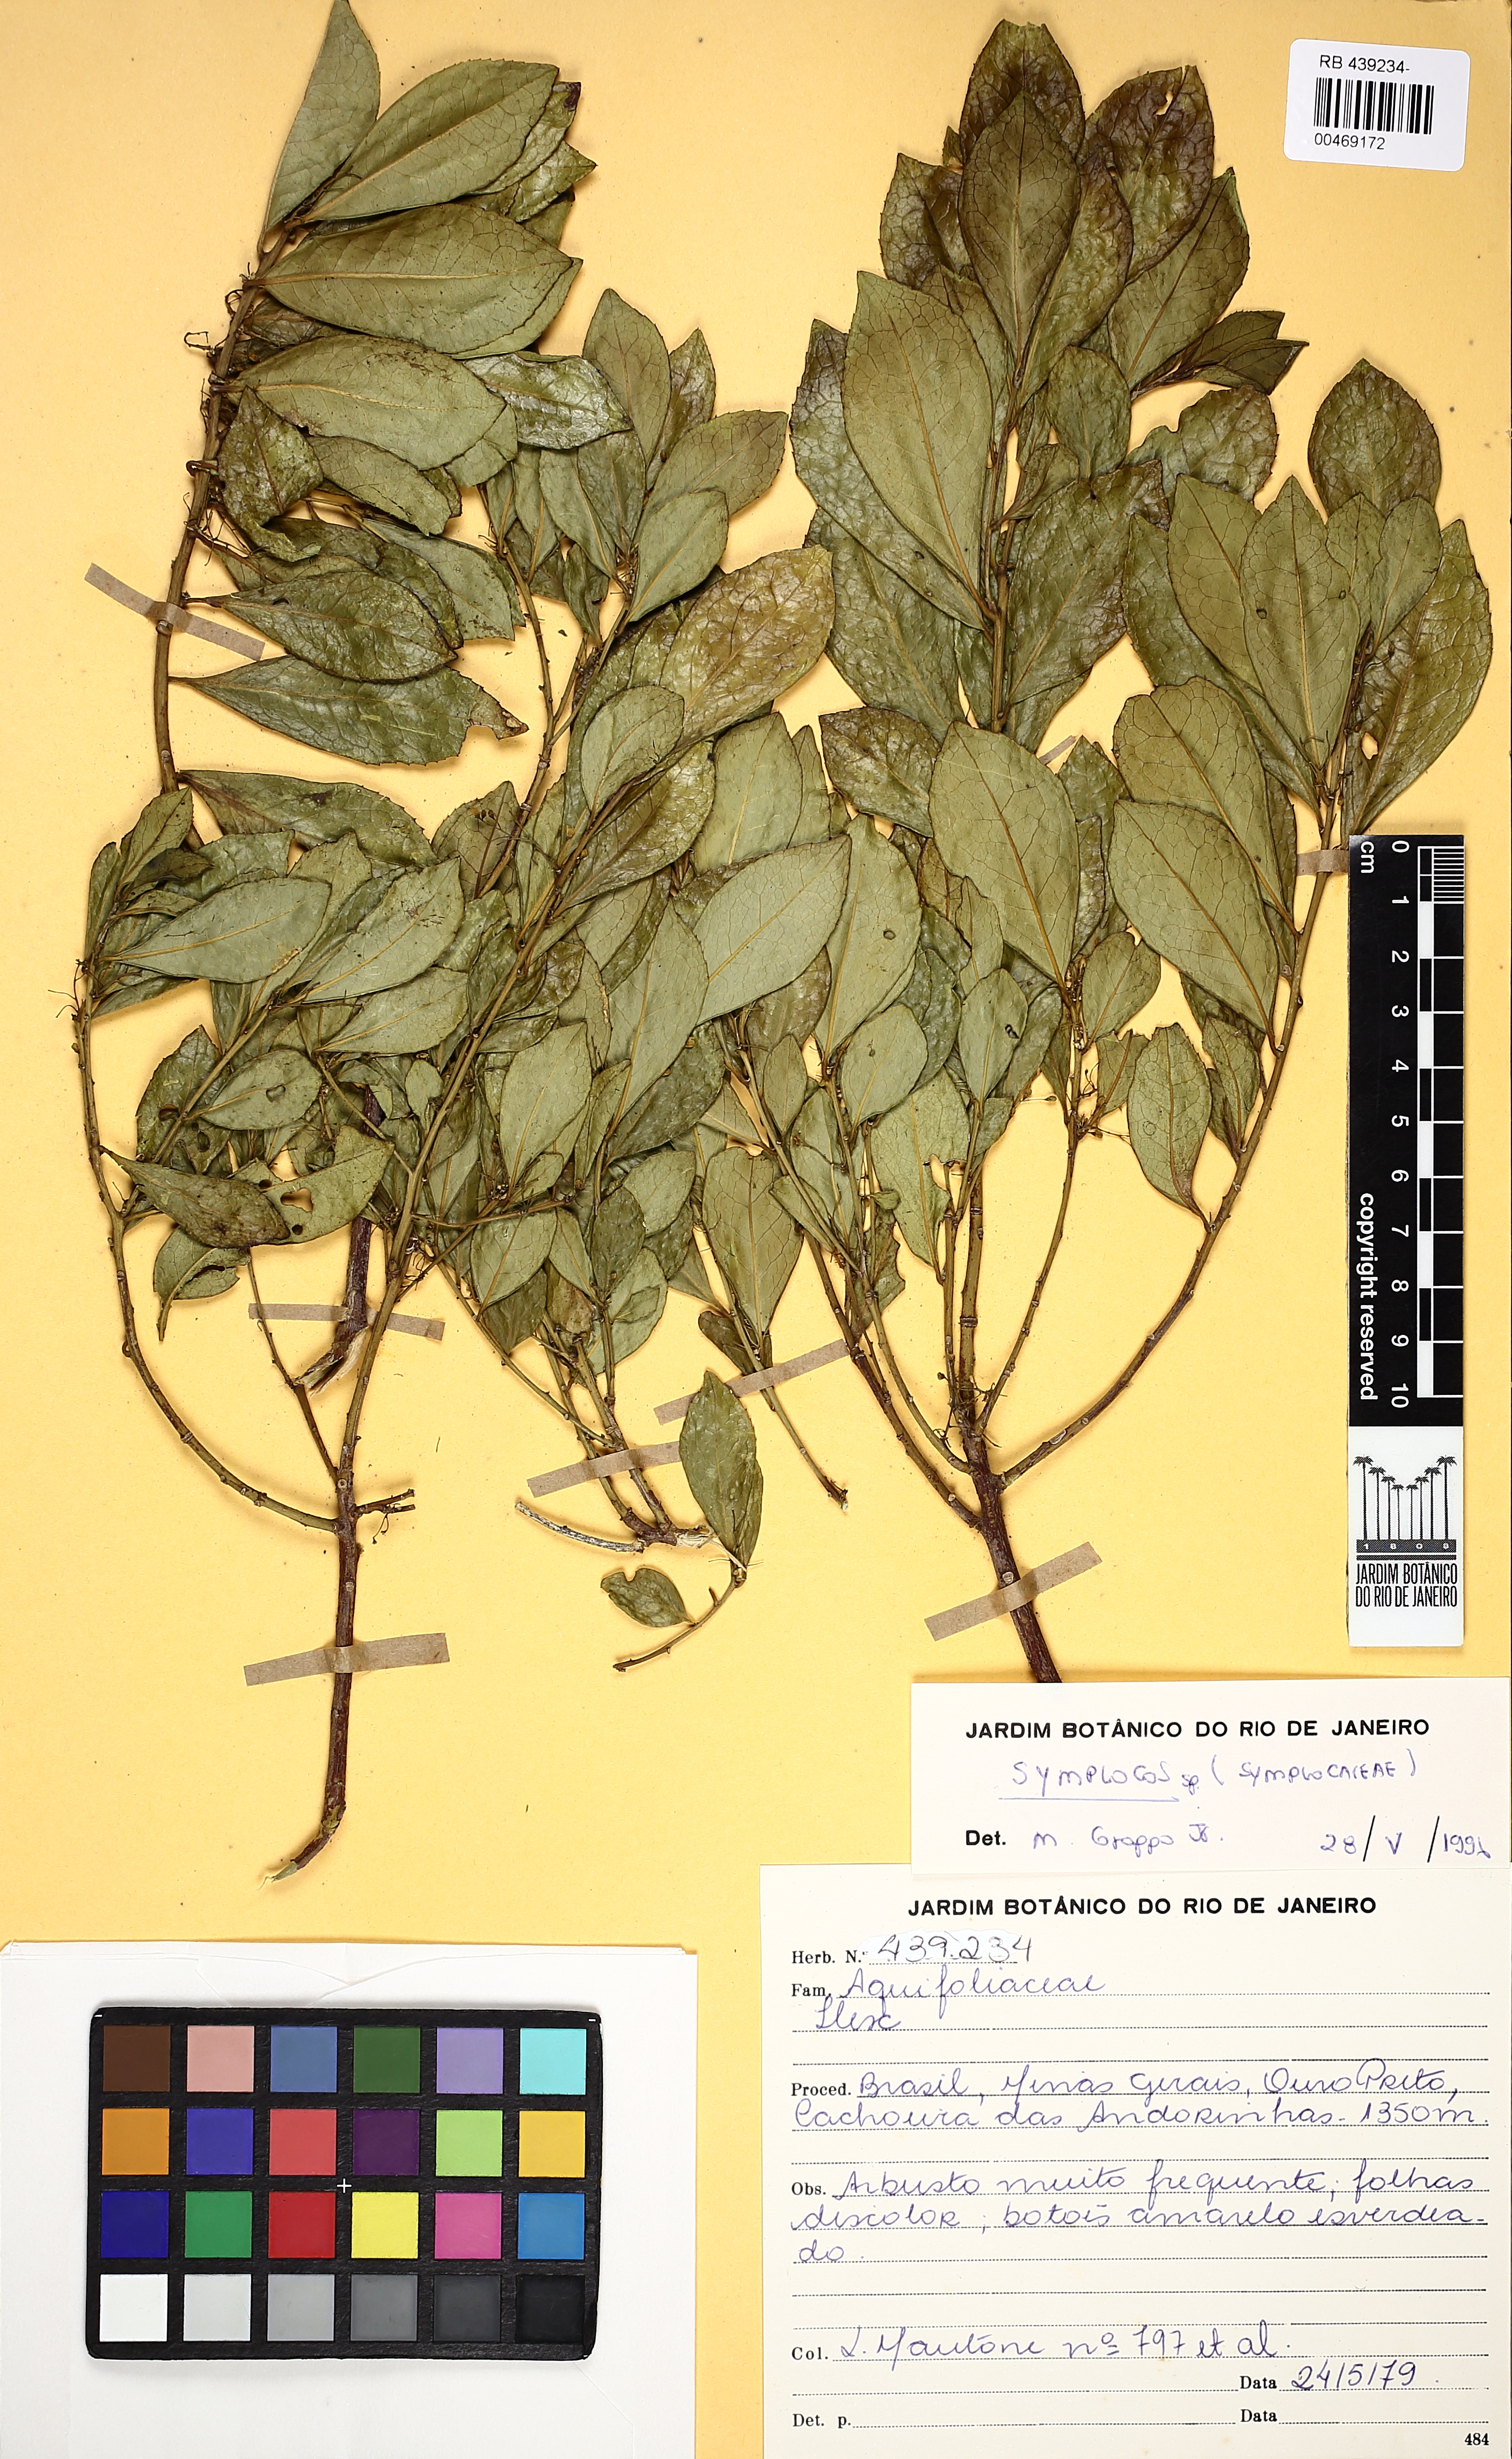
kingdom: Plantae
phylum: Tracheophyta
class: Magnoliopsida
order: Ericales
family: Symplocaceae
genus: Symplocos
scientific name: Symplocos
